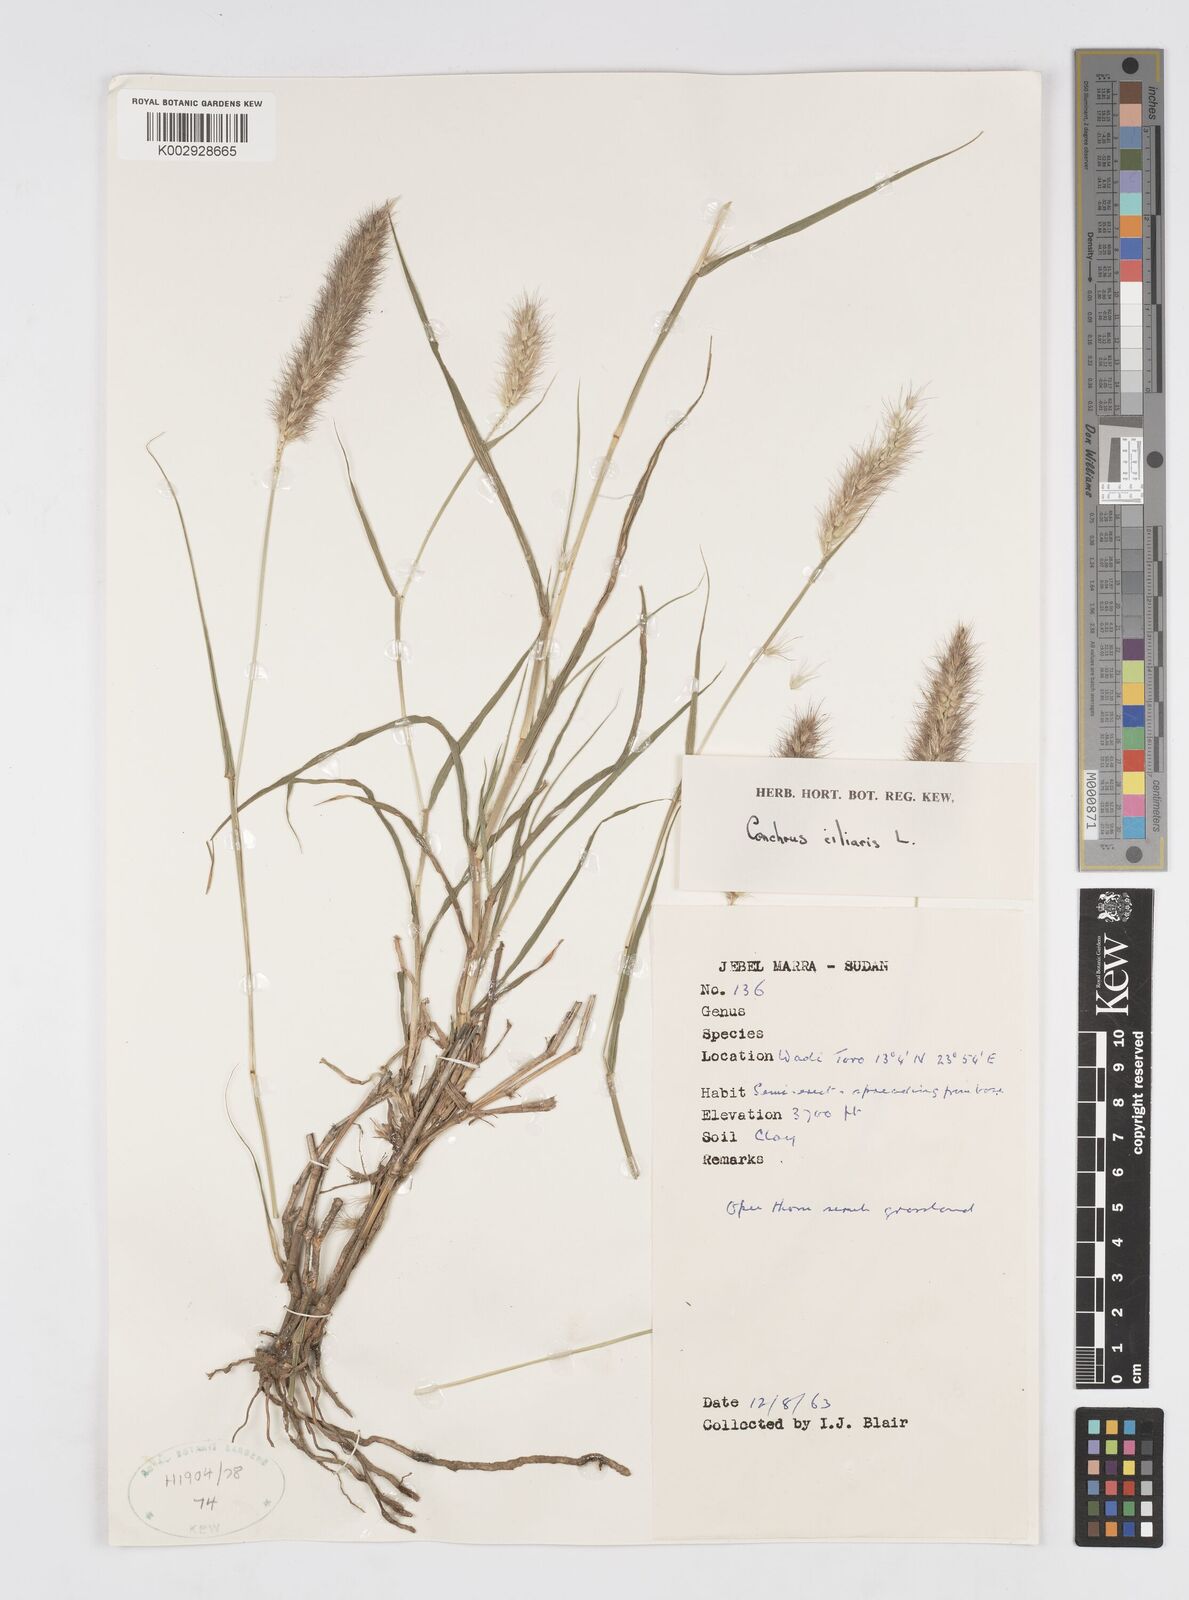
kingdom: Plantae
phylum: Tracheophyta
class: Liliopsida
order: Poales
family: Poaceae
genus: Cenchrus
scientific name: Cenchrus ciliaris
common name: Buffelgrass
